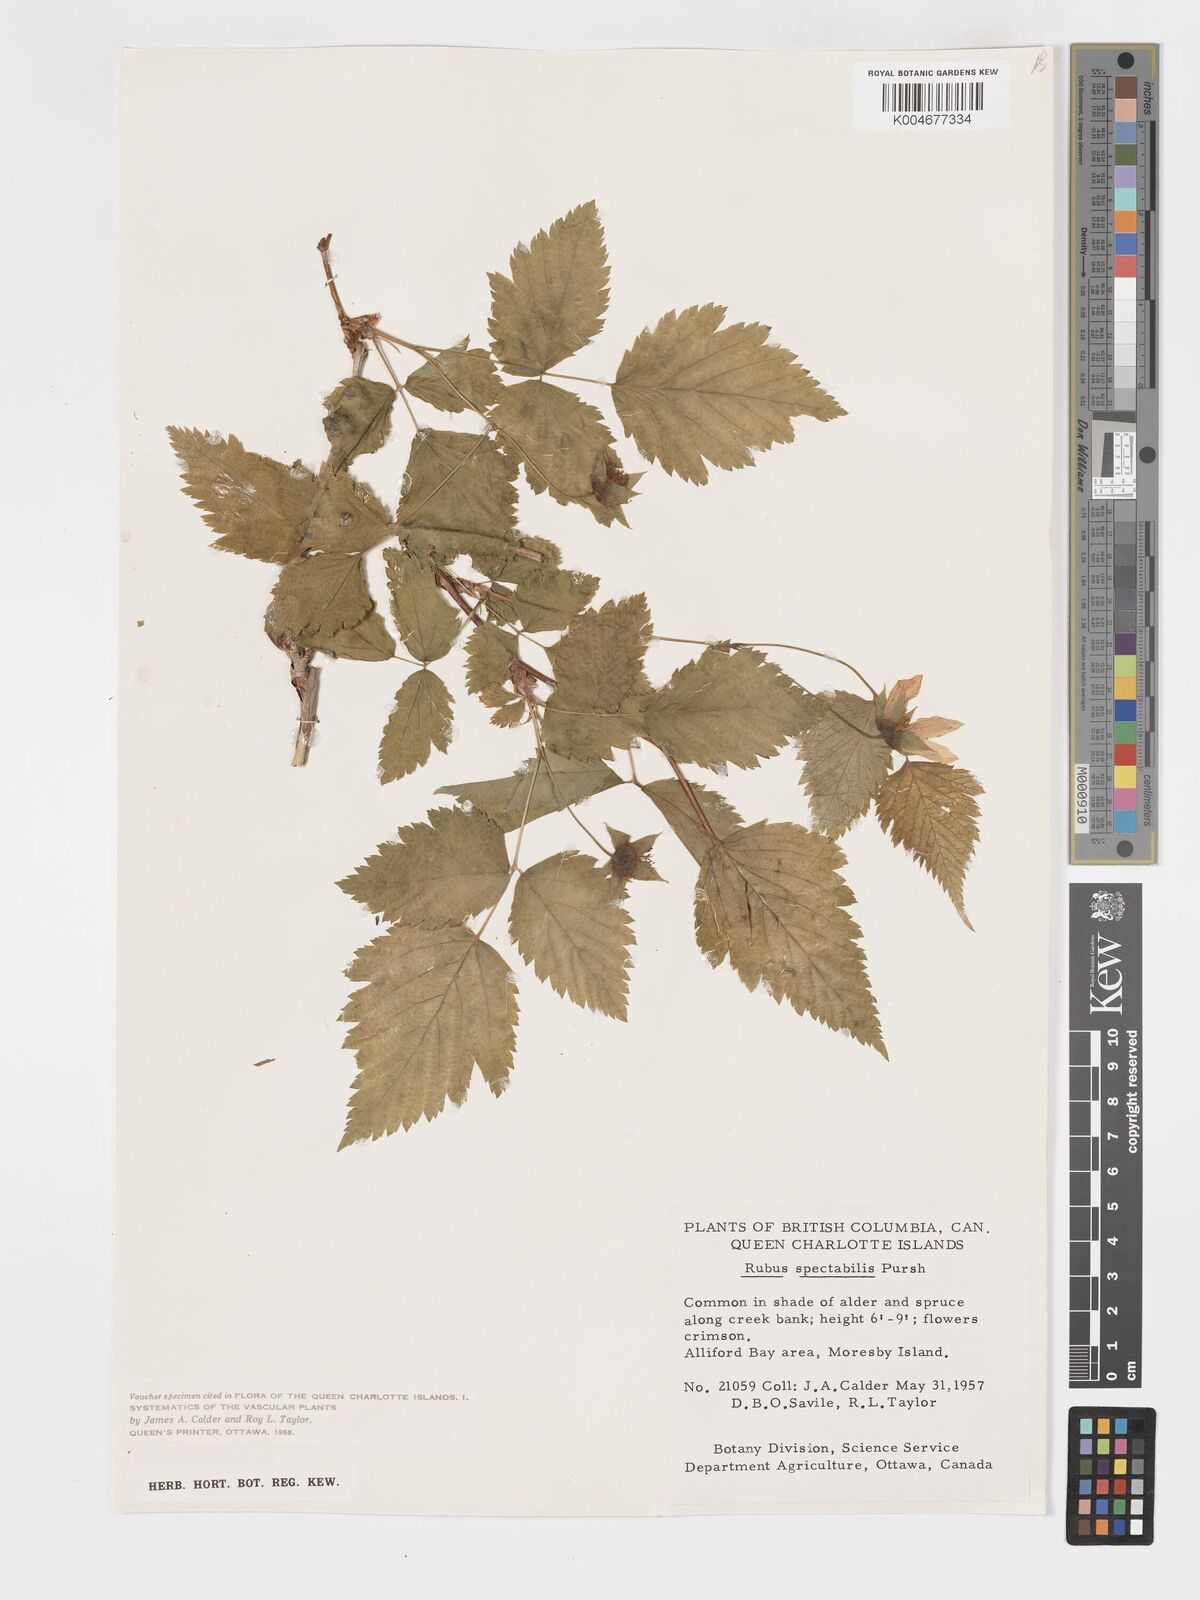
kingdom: Plantae
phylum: Tracheophyta
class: Magnoliopsida
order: Rosales
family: Rosaceae
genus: Rubus
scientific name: Rubus
